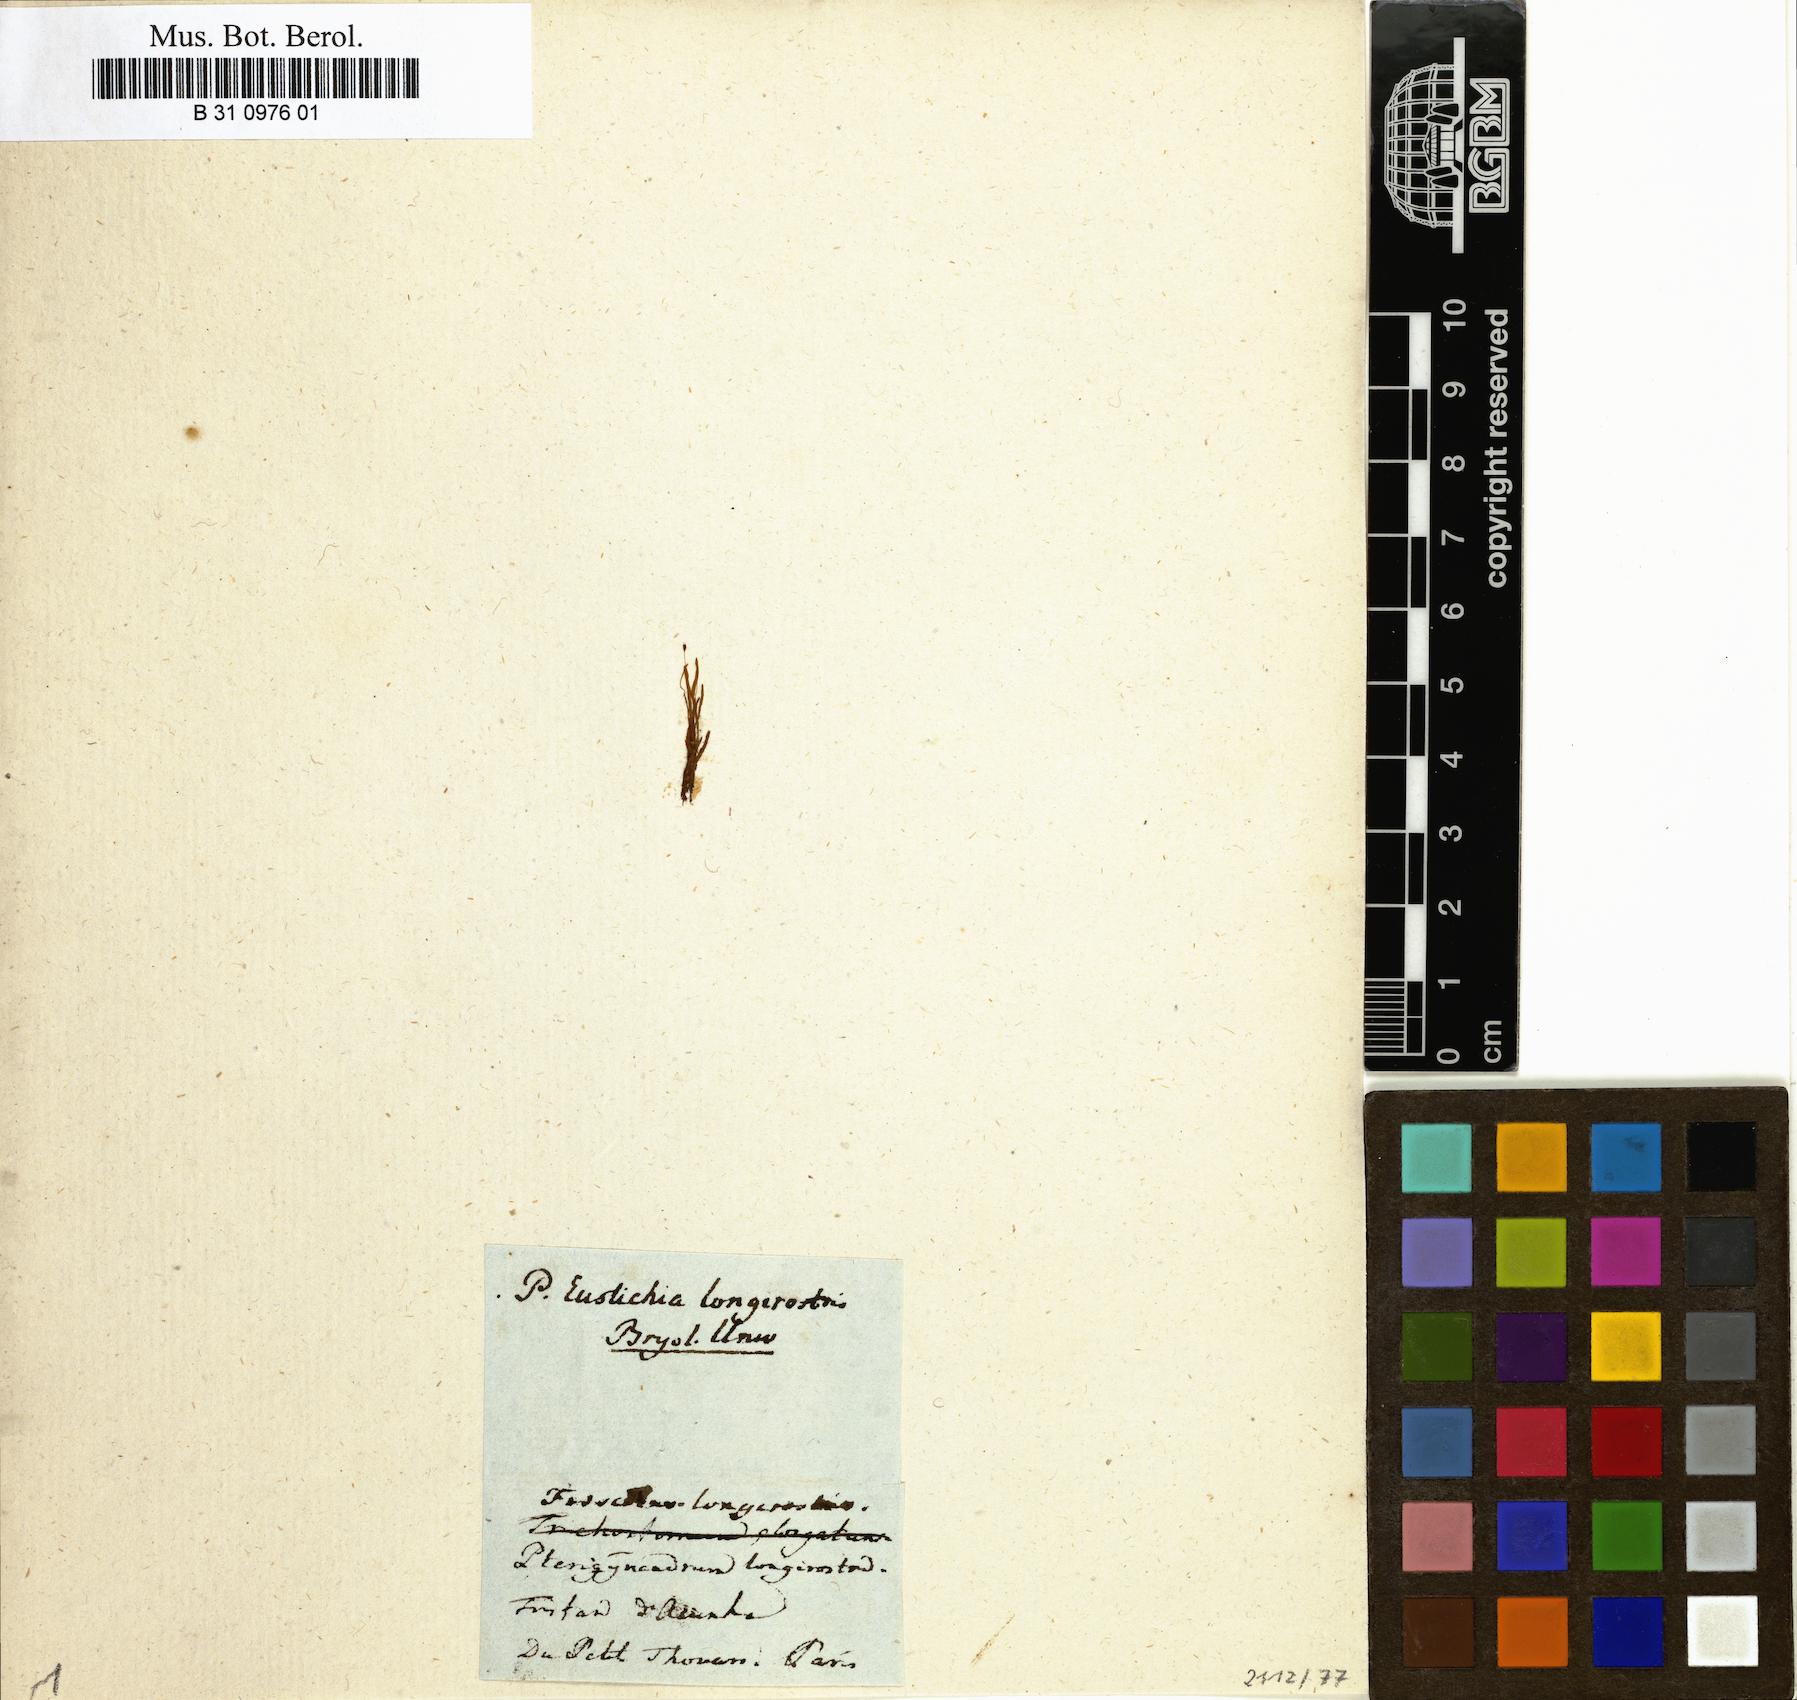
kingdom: Plantae
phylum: Bryophyta
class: Bryopsida
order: Dicranales
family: Eustichiaceae
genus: Eustichia
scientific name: Eustichia longirostris
